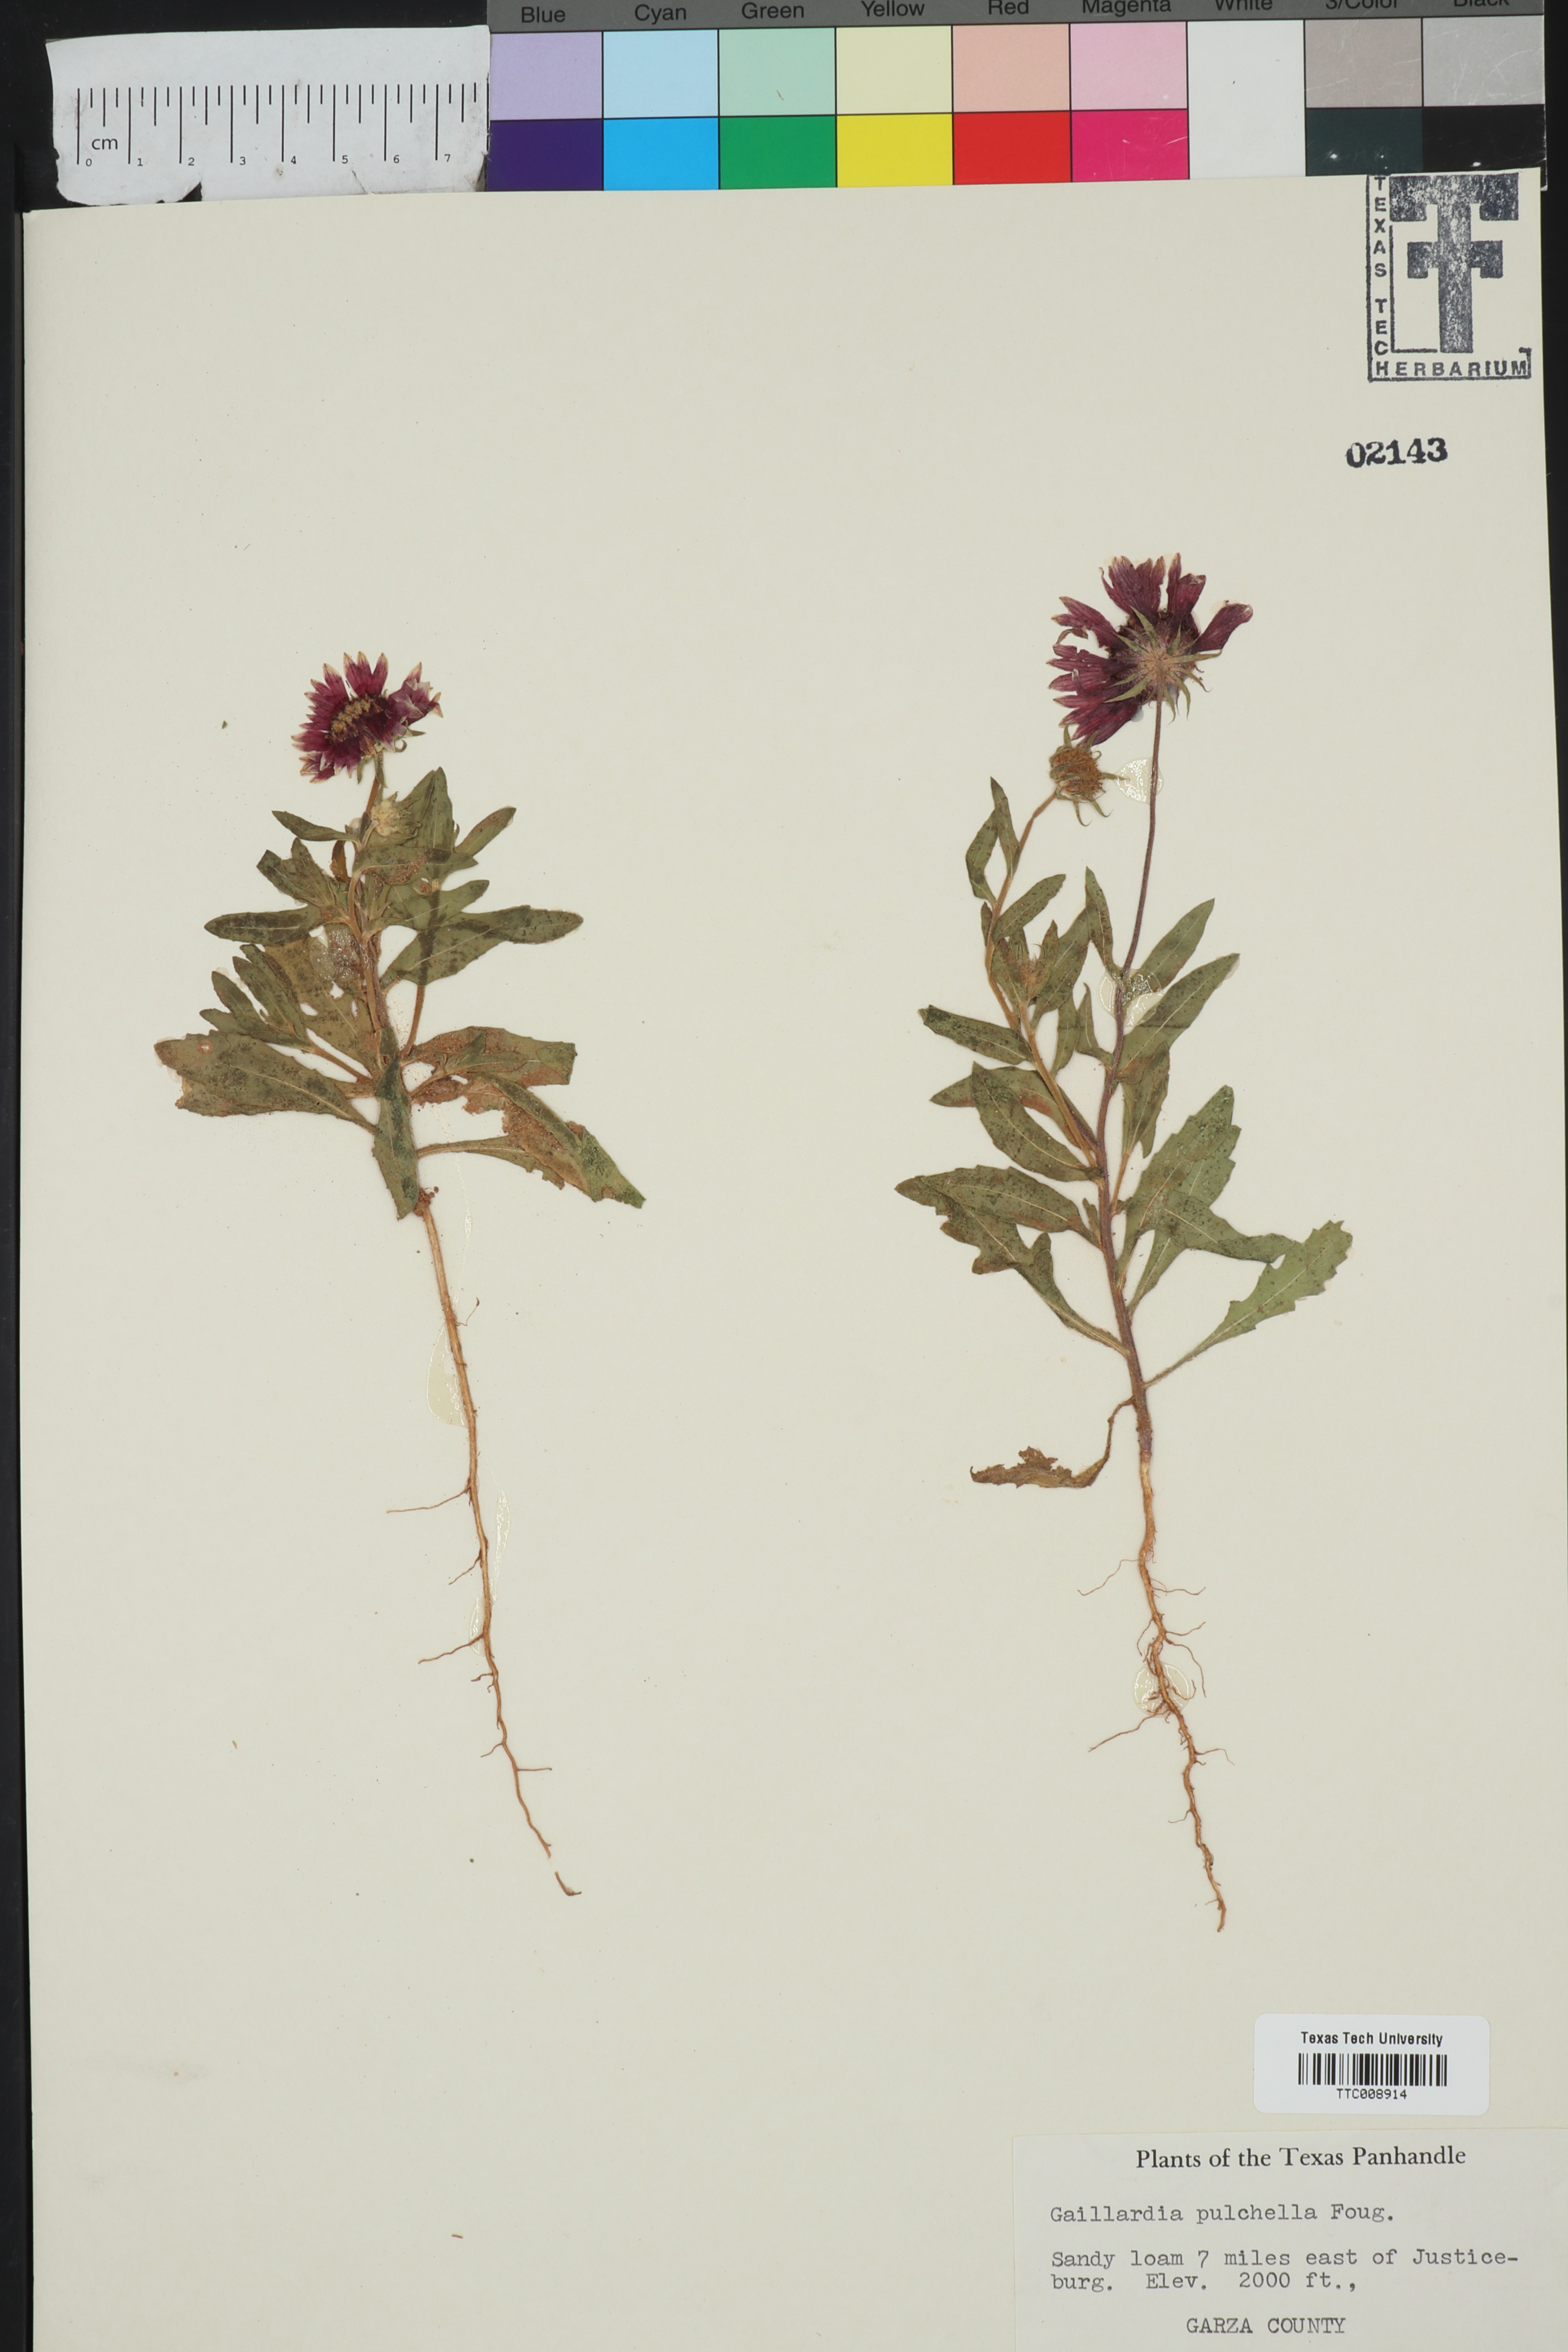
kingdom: Plantae
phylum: Tracheophyta
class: Magnoliopsida
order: Asterales
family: Asteraceae
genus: Gaillardia
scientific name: Gaillardia pulchella
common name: Firewheel
